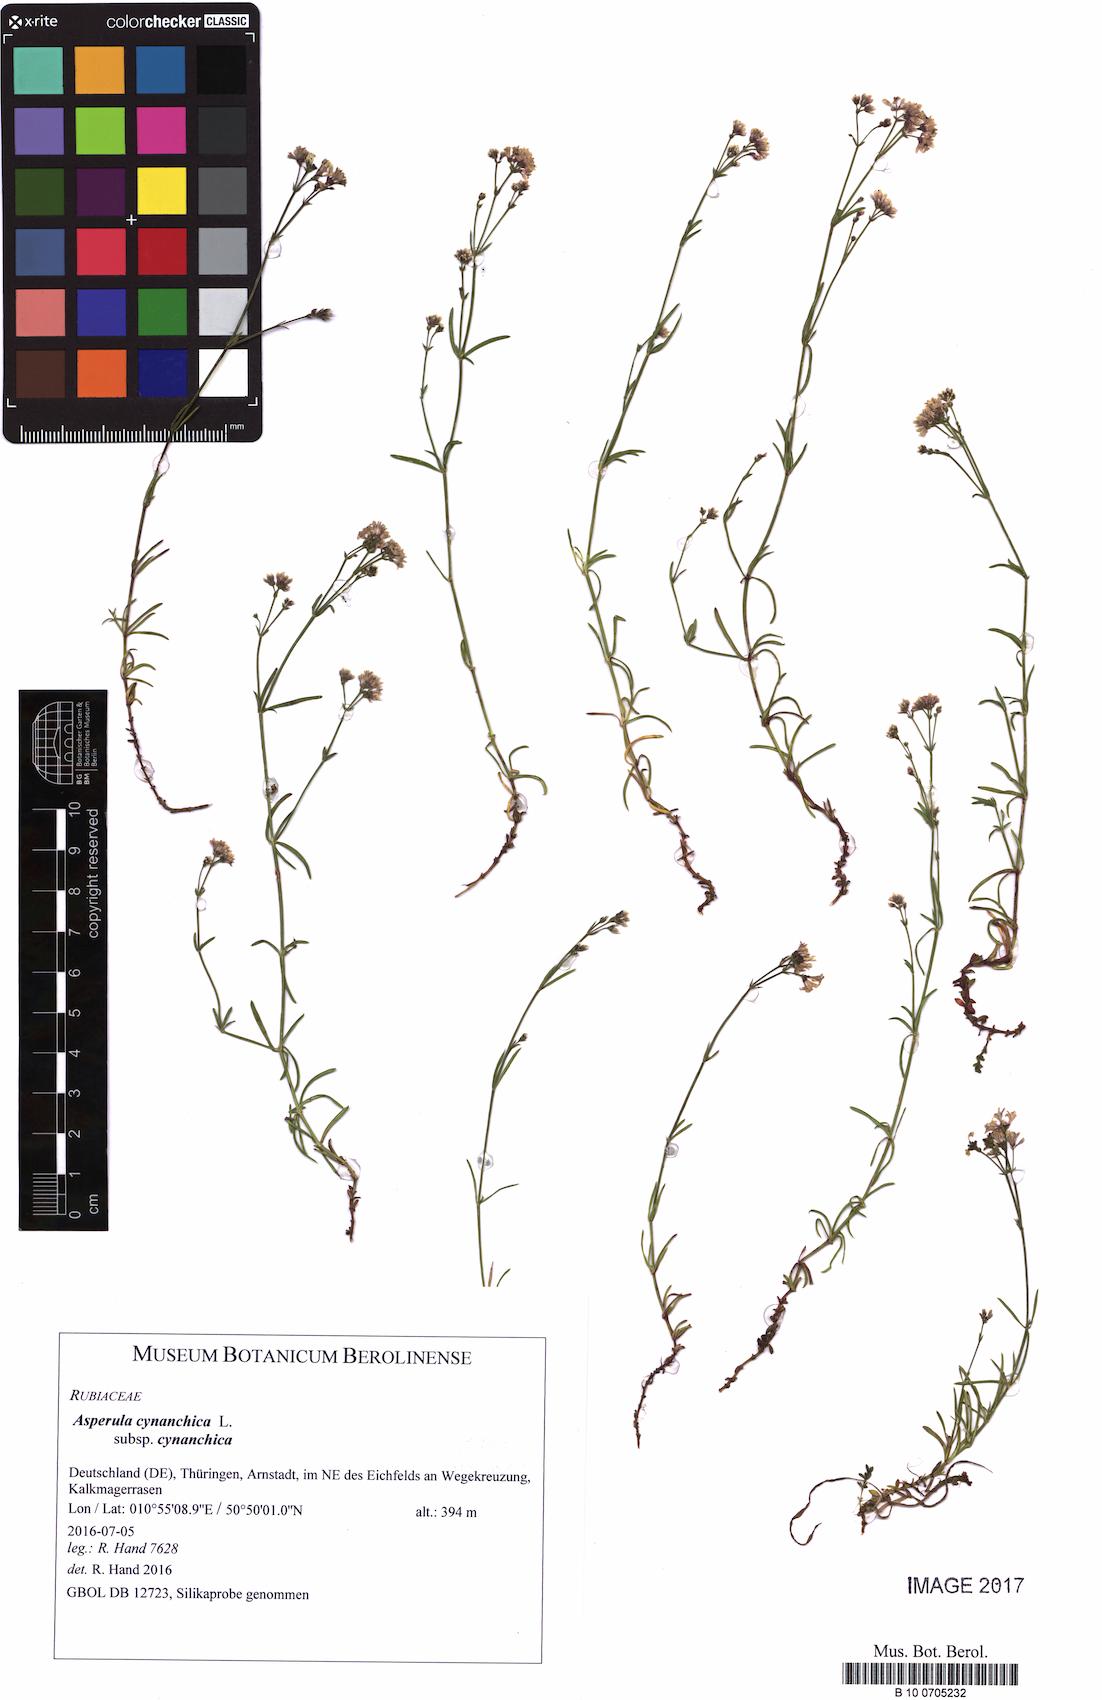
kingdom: Plantae
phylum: Tracheophyta
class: Magnoliopsida
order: Gentianales
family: Rubiaceae
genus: Cynanchica
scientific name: Cynanchica pyrenaica
